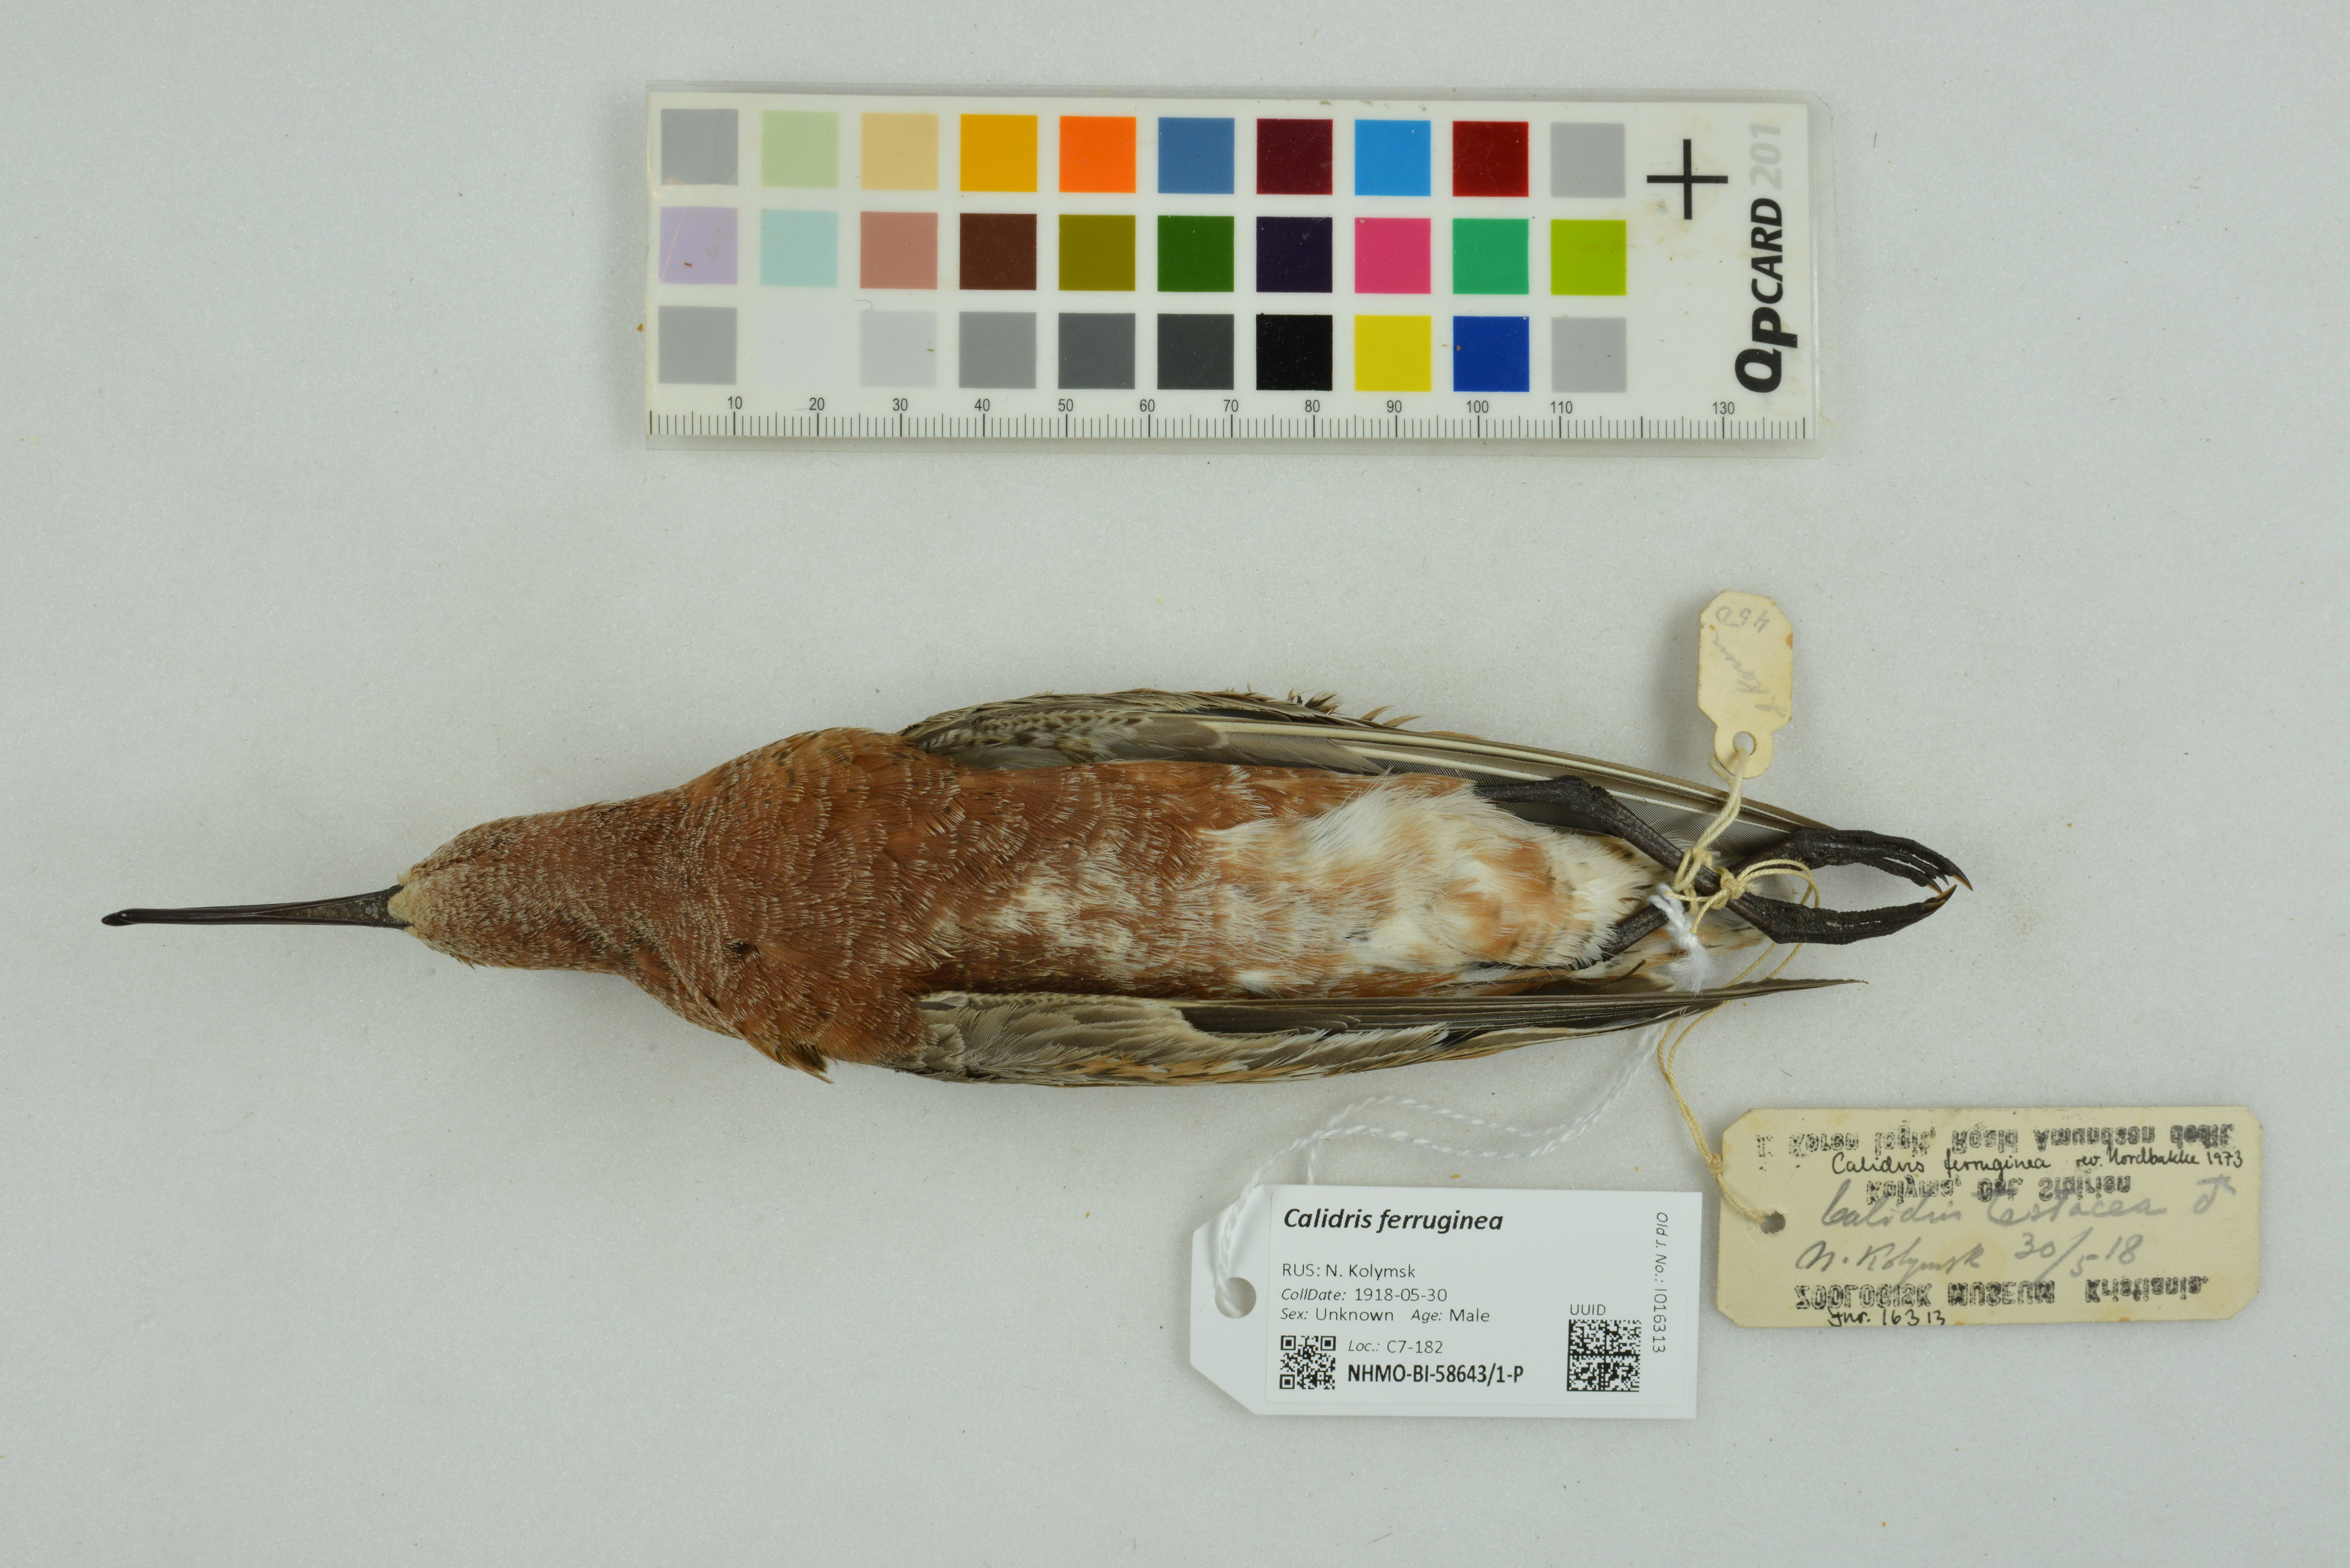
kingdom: Animalia
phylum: Chordata
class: Aves
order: Charadriiformes
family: Scolopacidae
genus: Calidris
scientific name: Calidris ferruginea
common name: Curlew sandpiper
